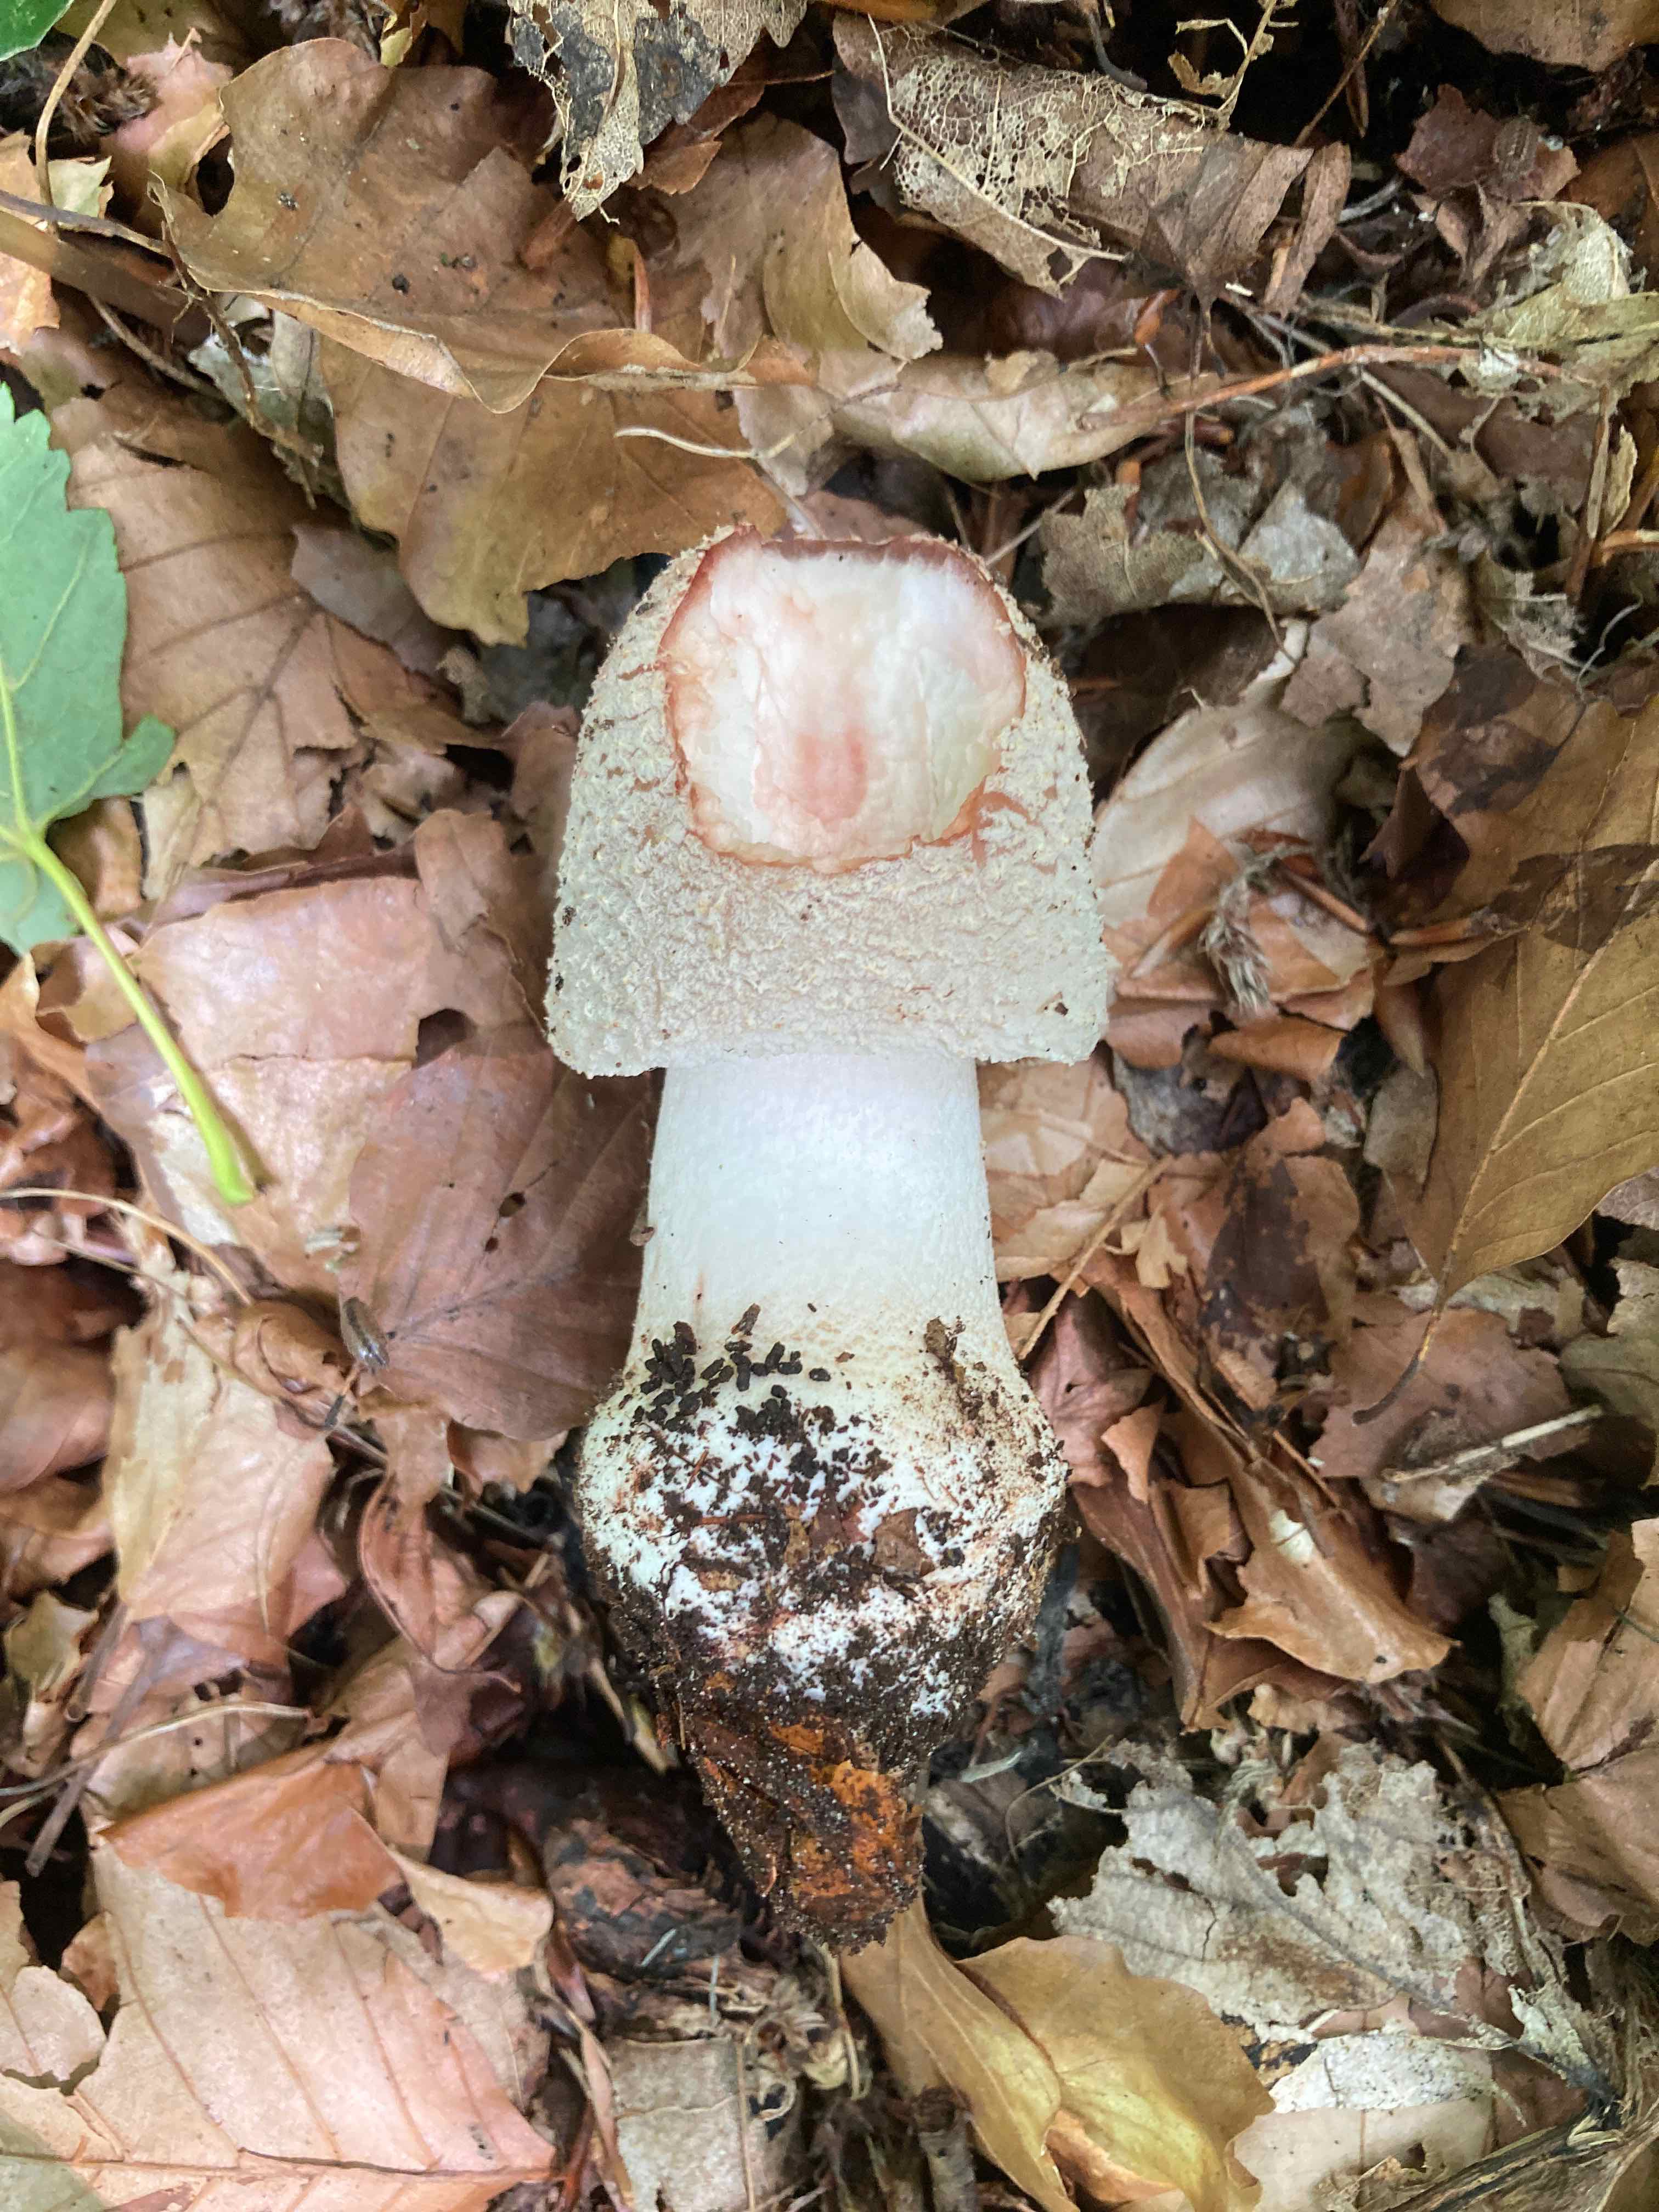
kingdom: Fungi
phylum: Basidiomycota
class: Agaricomycetes
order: Agaricales
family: Amanitaceae
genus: Amanita
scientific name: Amanita rubescens
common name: rødmende fluesvamp
